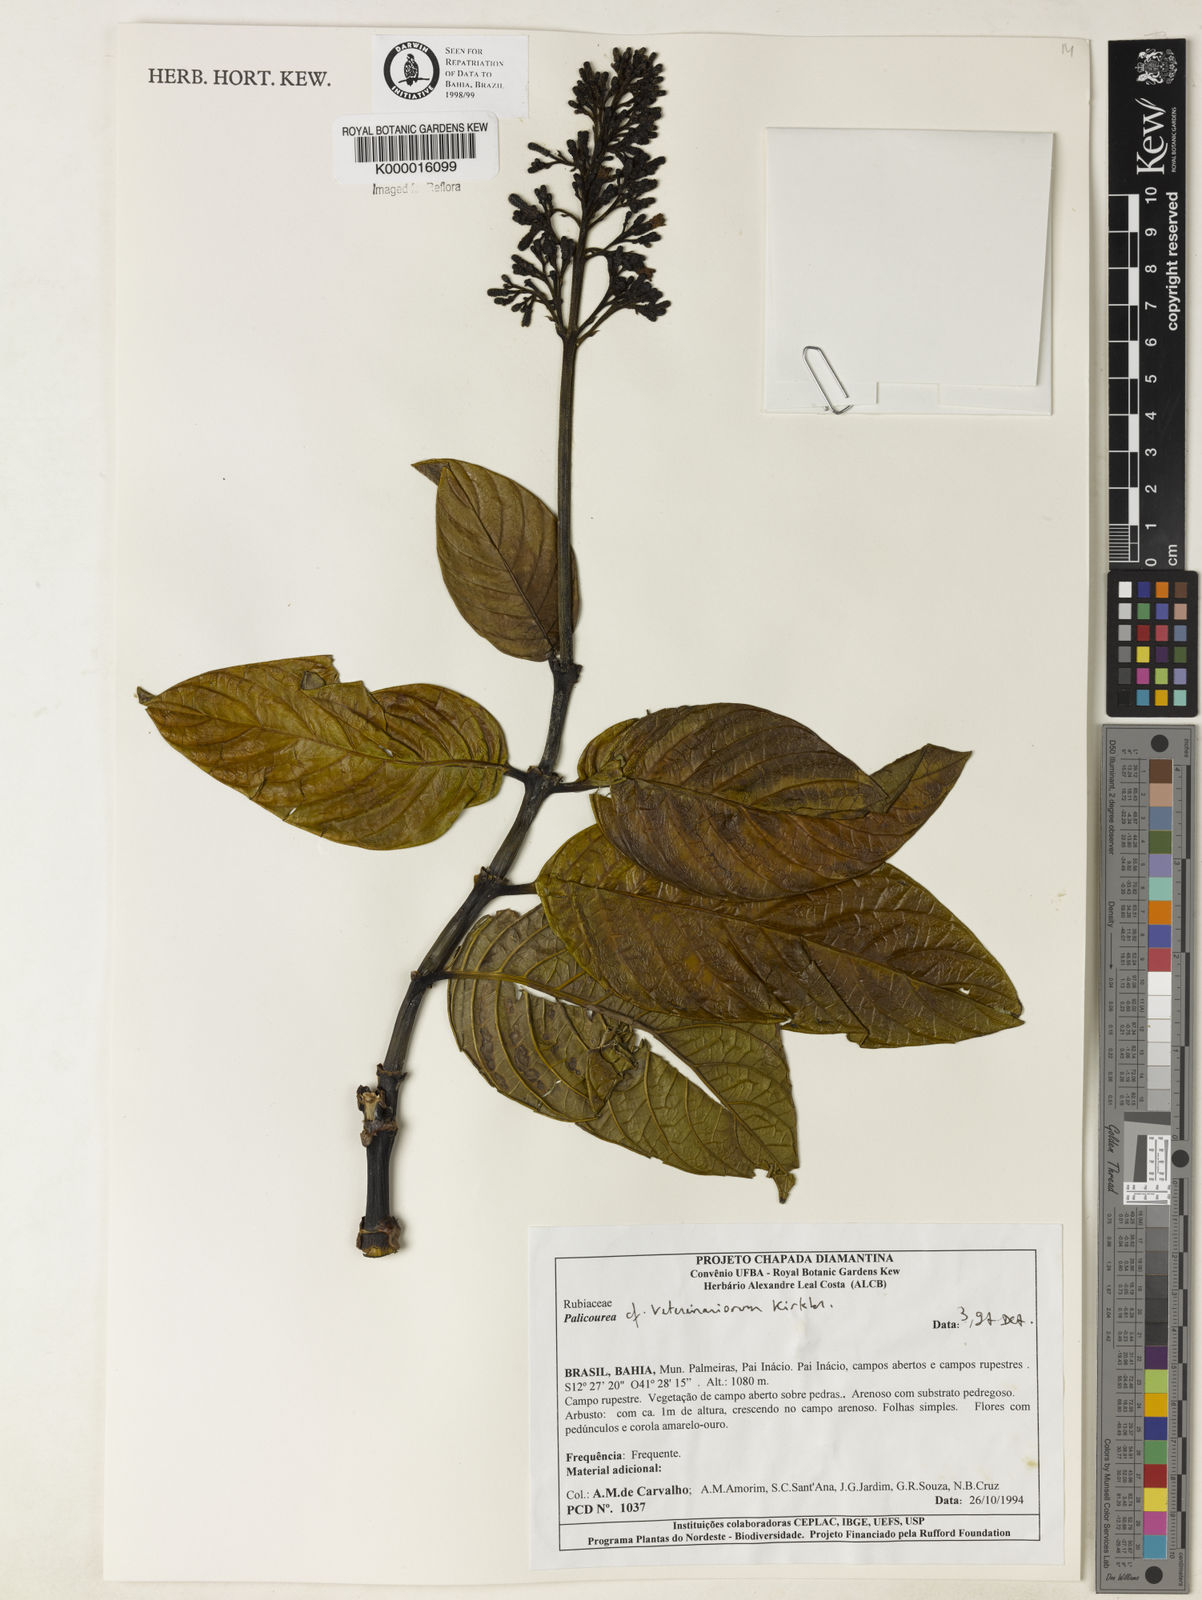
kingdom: Plantae
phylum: Tracheophyta
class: Magnoliopsida
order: Gentianales
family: Rubiaceae
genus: Palicourea
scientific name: Palicourea veterinariorum
